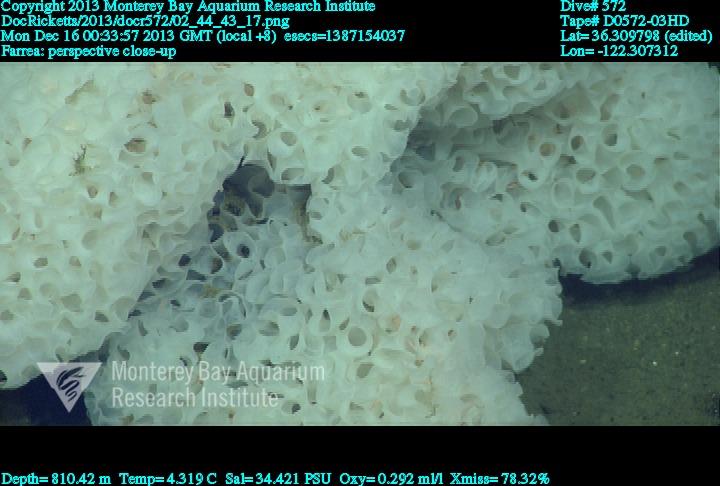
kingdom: Animalia
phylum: Porifera
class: Hexactinellida
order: Sceptrulophora
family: Farreidae
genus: Farrea
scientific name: Farrea
